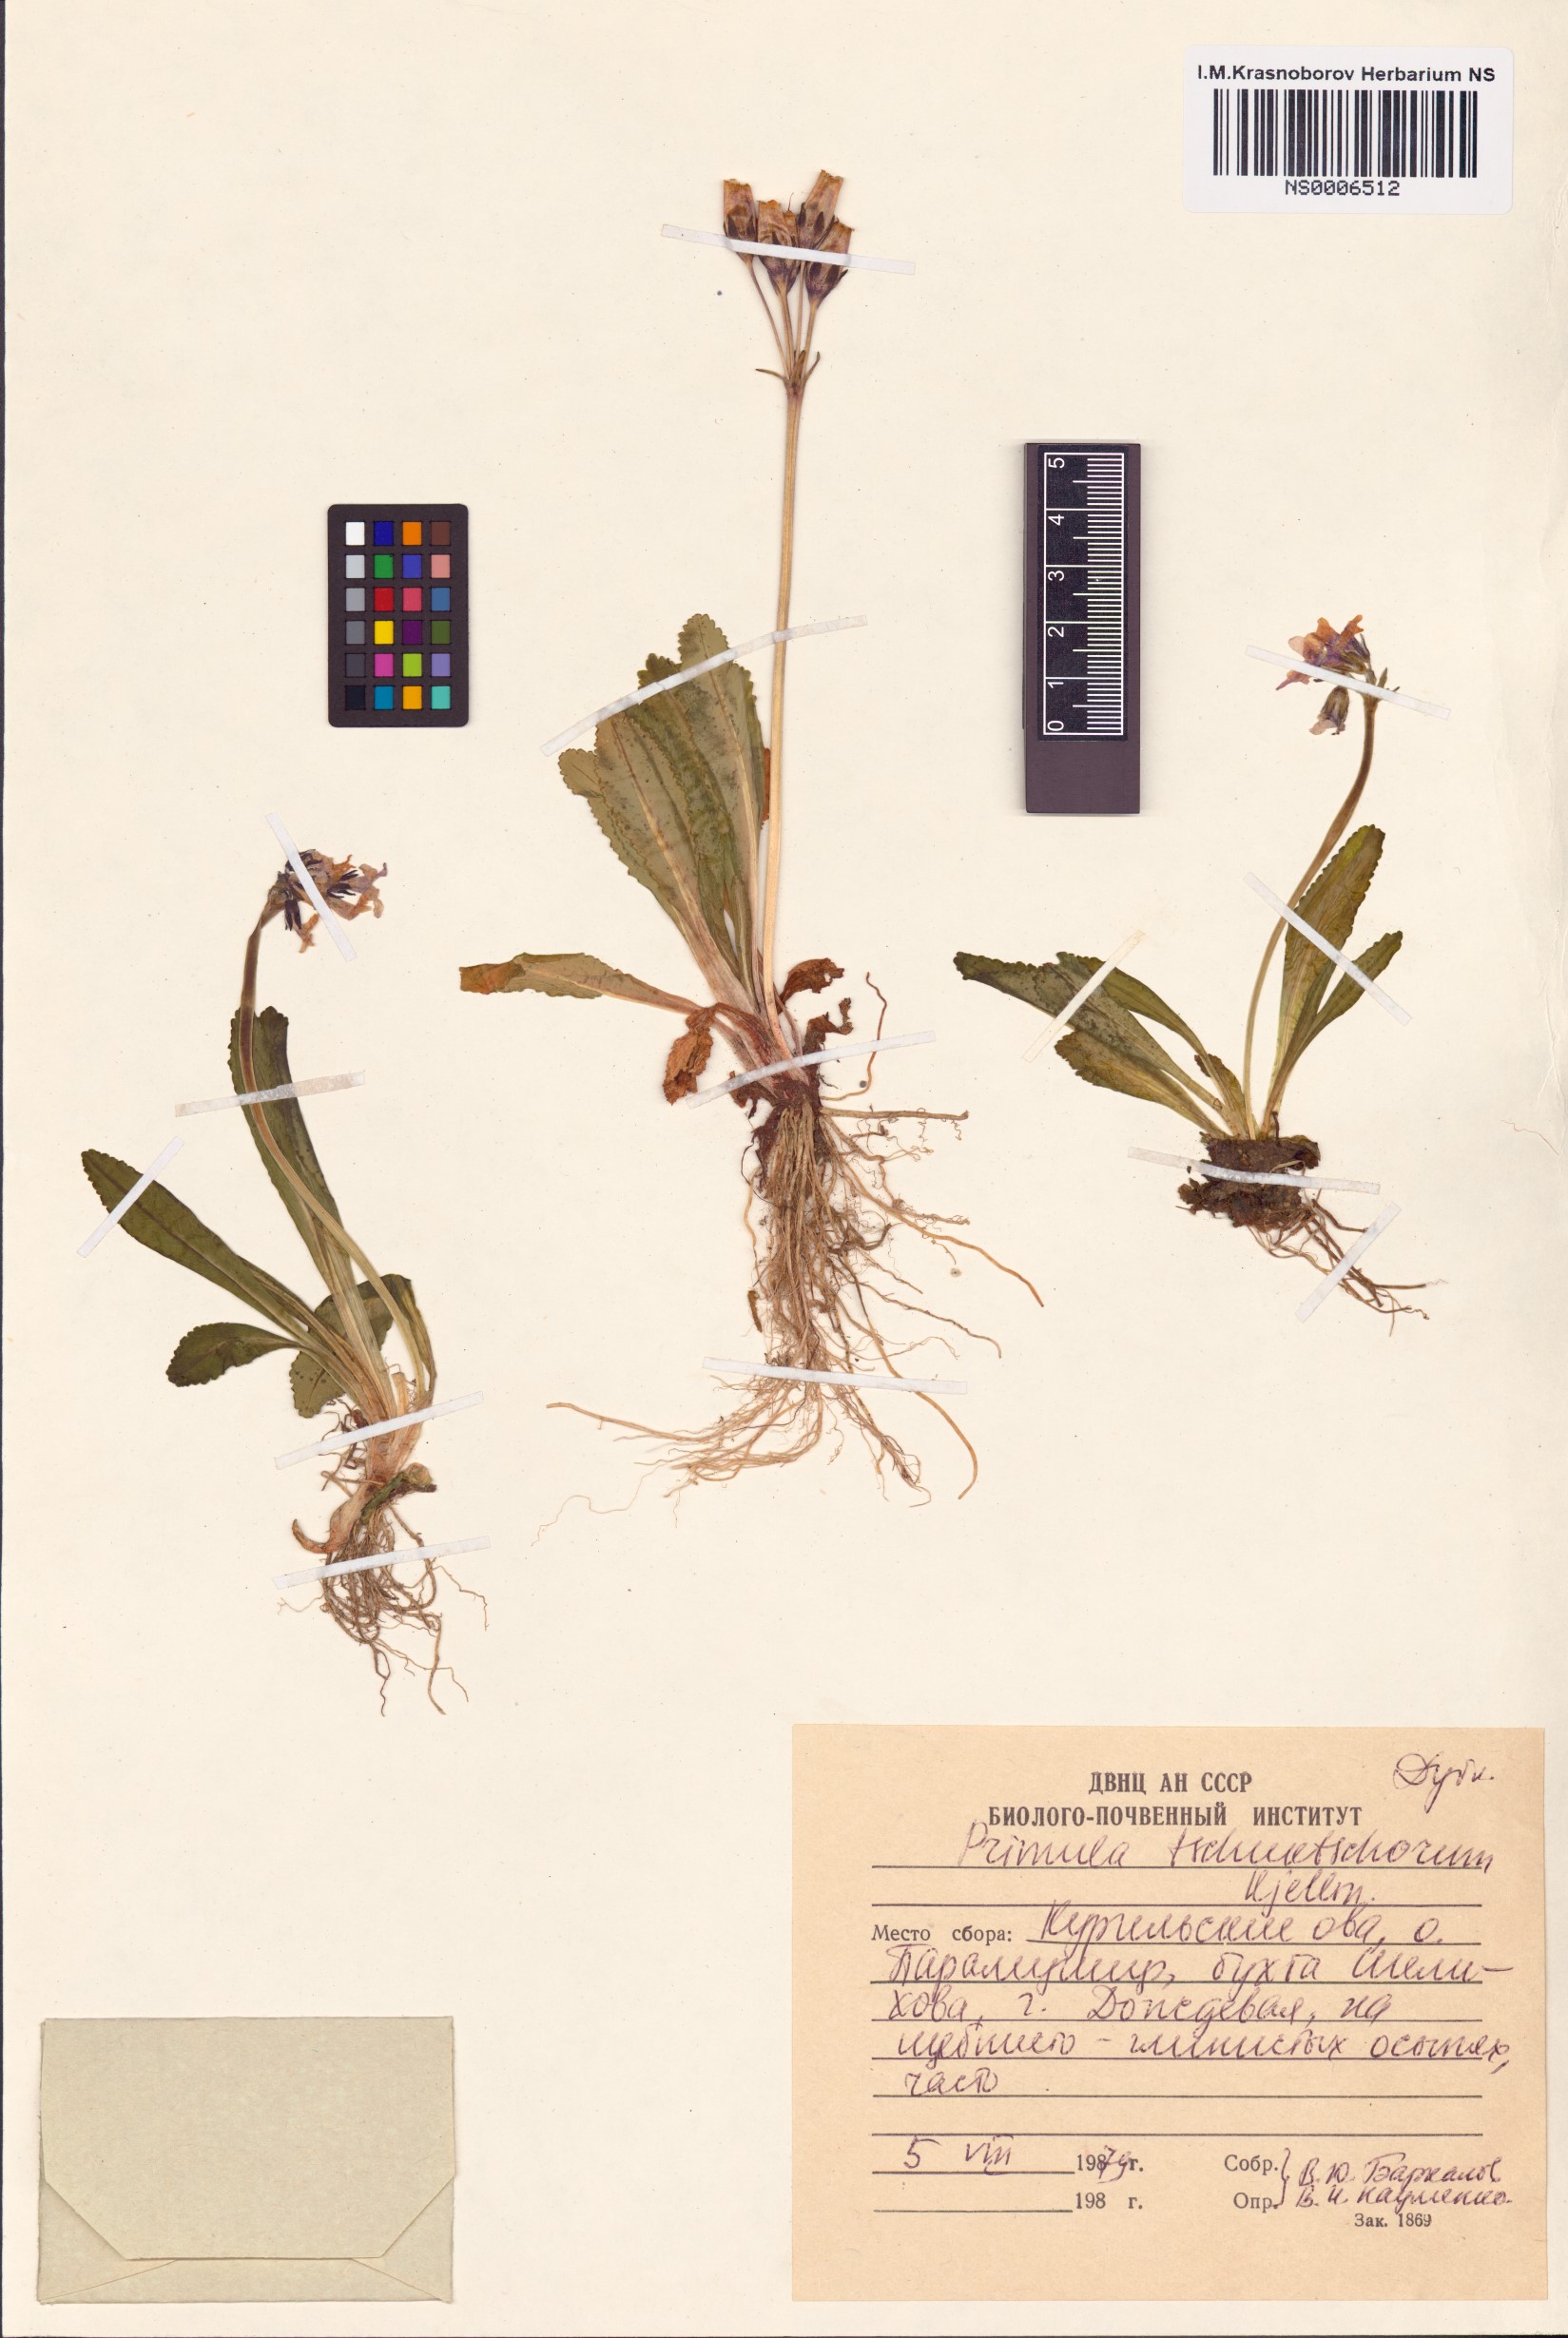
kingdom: Plantae
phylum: Tracheophyta
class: Magnoliopsida
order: Ericales
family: Primulaceae
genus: Primula
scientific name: Primula tschuktschorum
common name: Chukchi primrose
